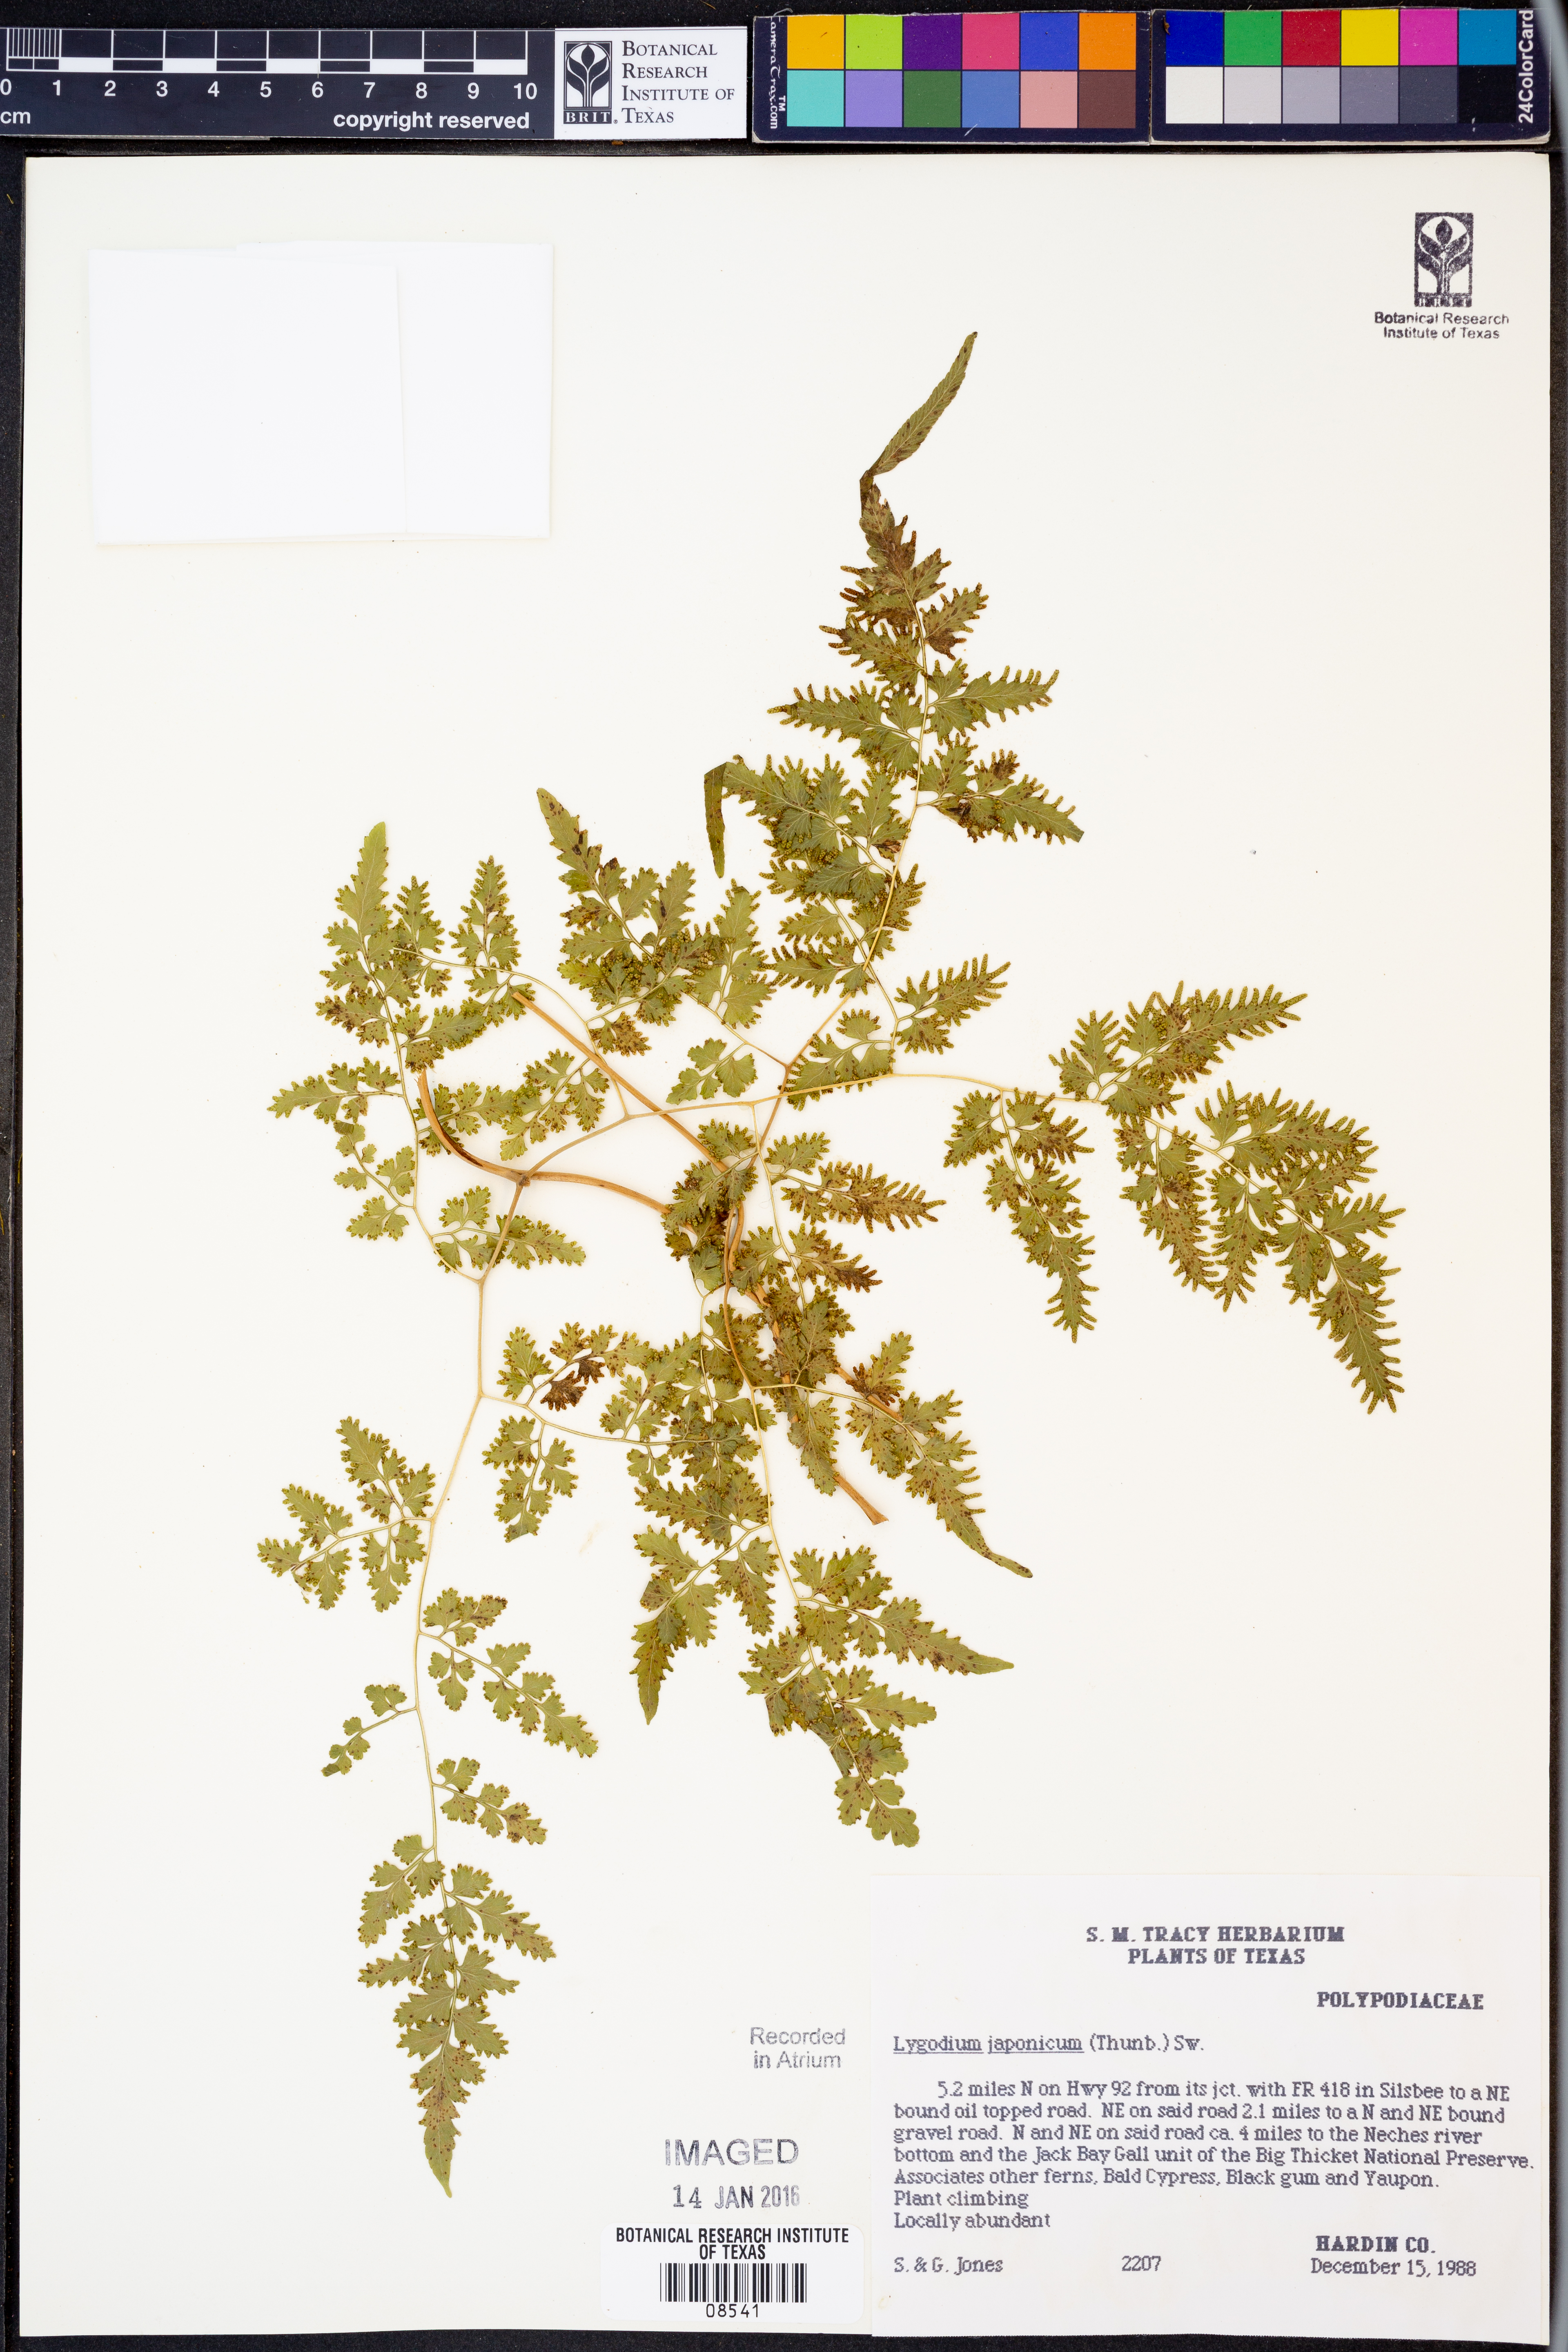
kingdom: Plantae
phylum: Tracheophyta
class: Polypodiopsida
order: Schizaeales
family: Lygodiaceae
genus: Lygodium
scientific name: Lygodium japonicum
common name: Japanese climbing fern
